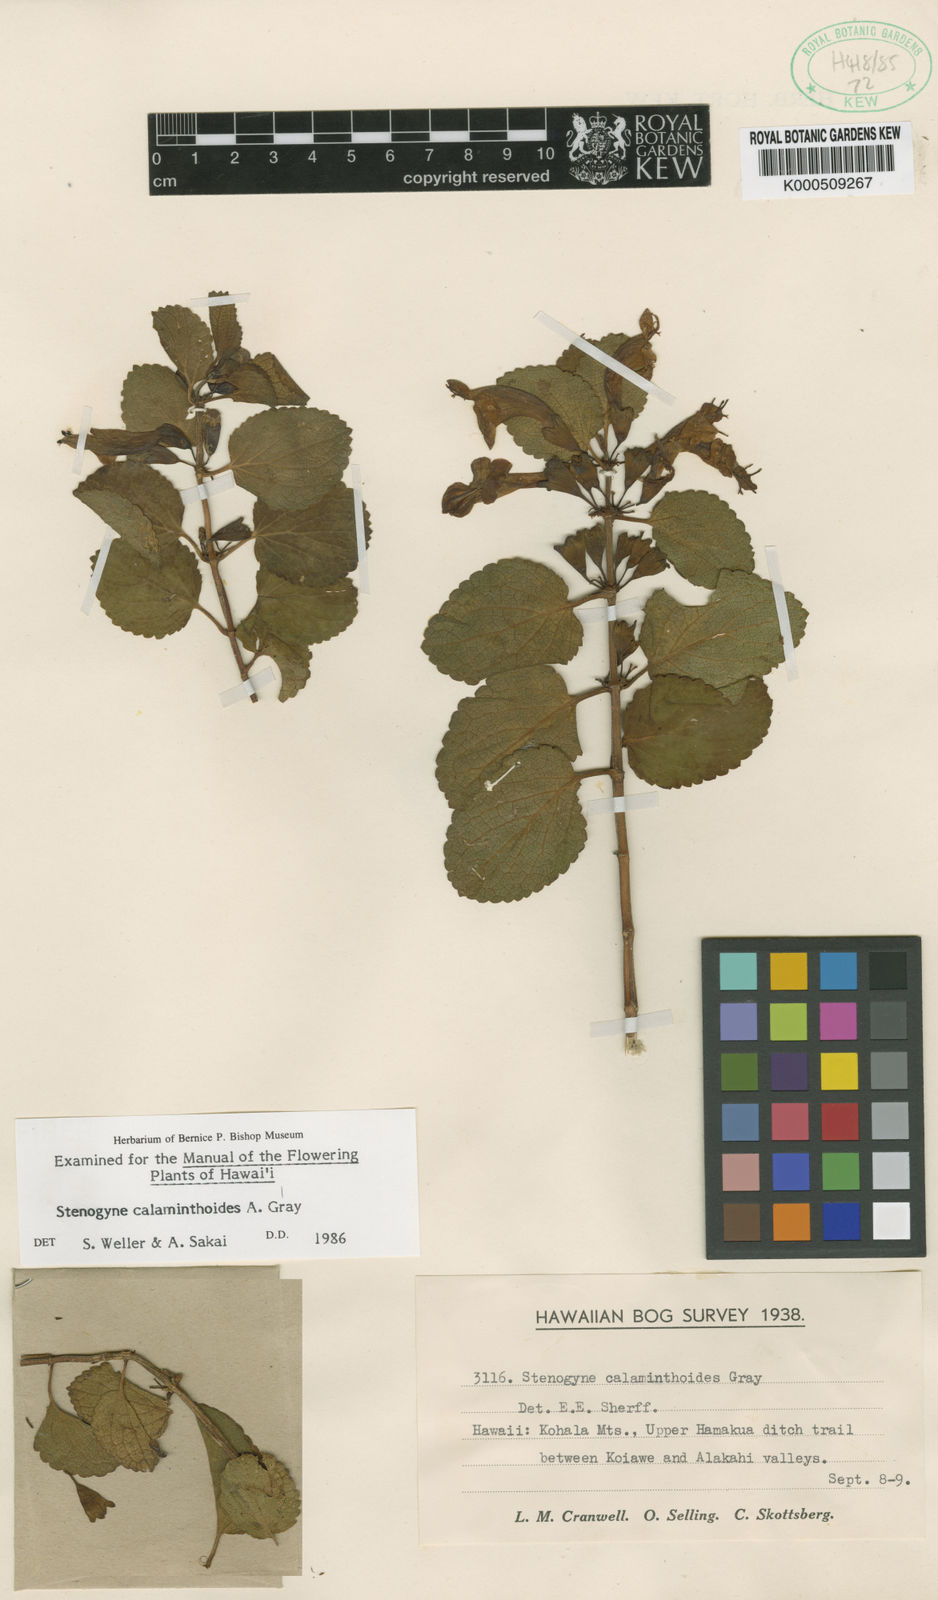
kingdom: Plantae
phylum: Tracheophyta
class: Magnoliopsida
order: Lamiales
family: Lamiaceae
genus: Stenogyne
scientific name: Stenogyne calaminthoides
